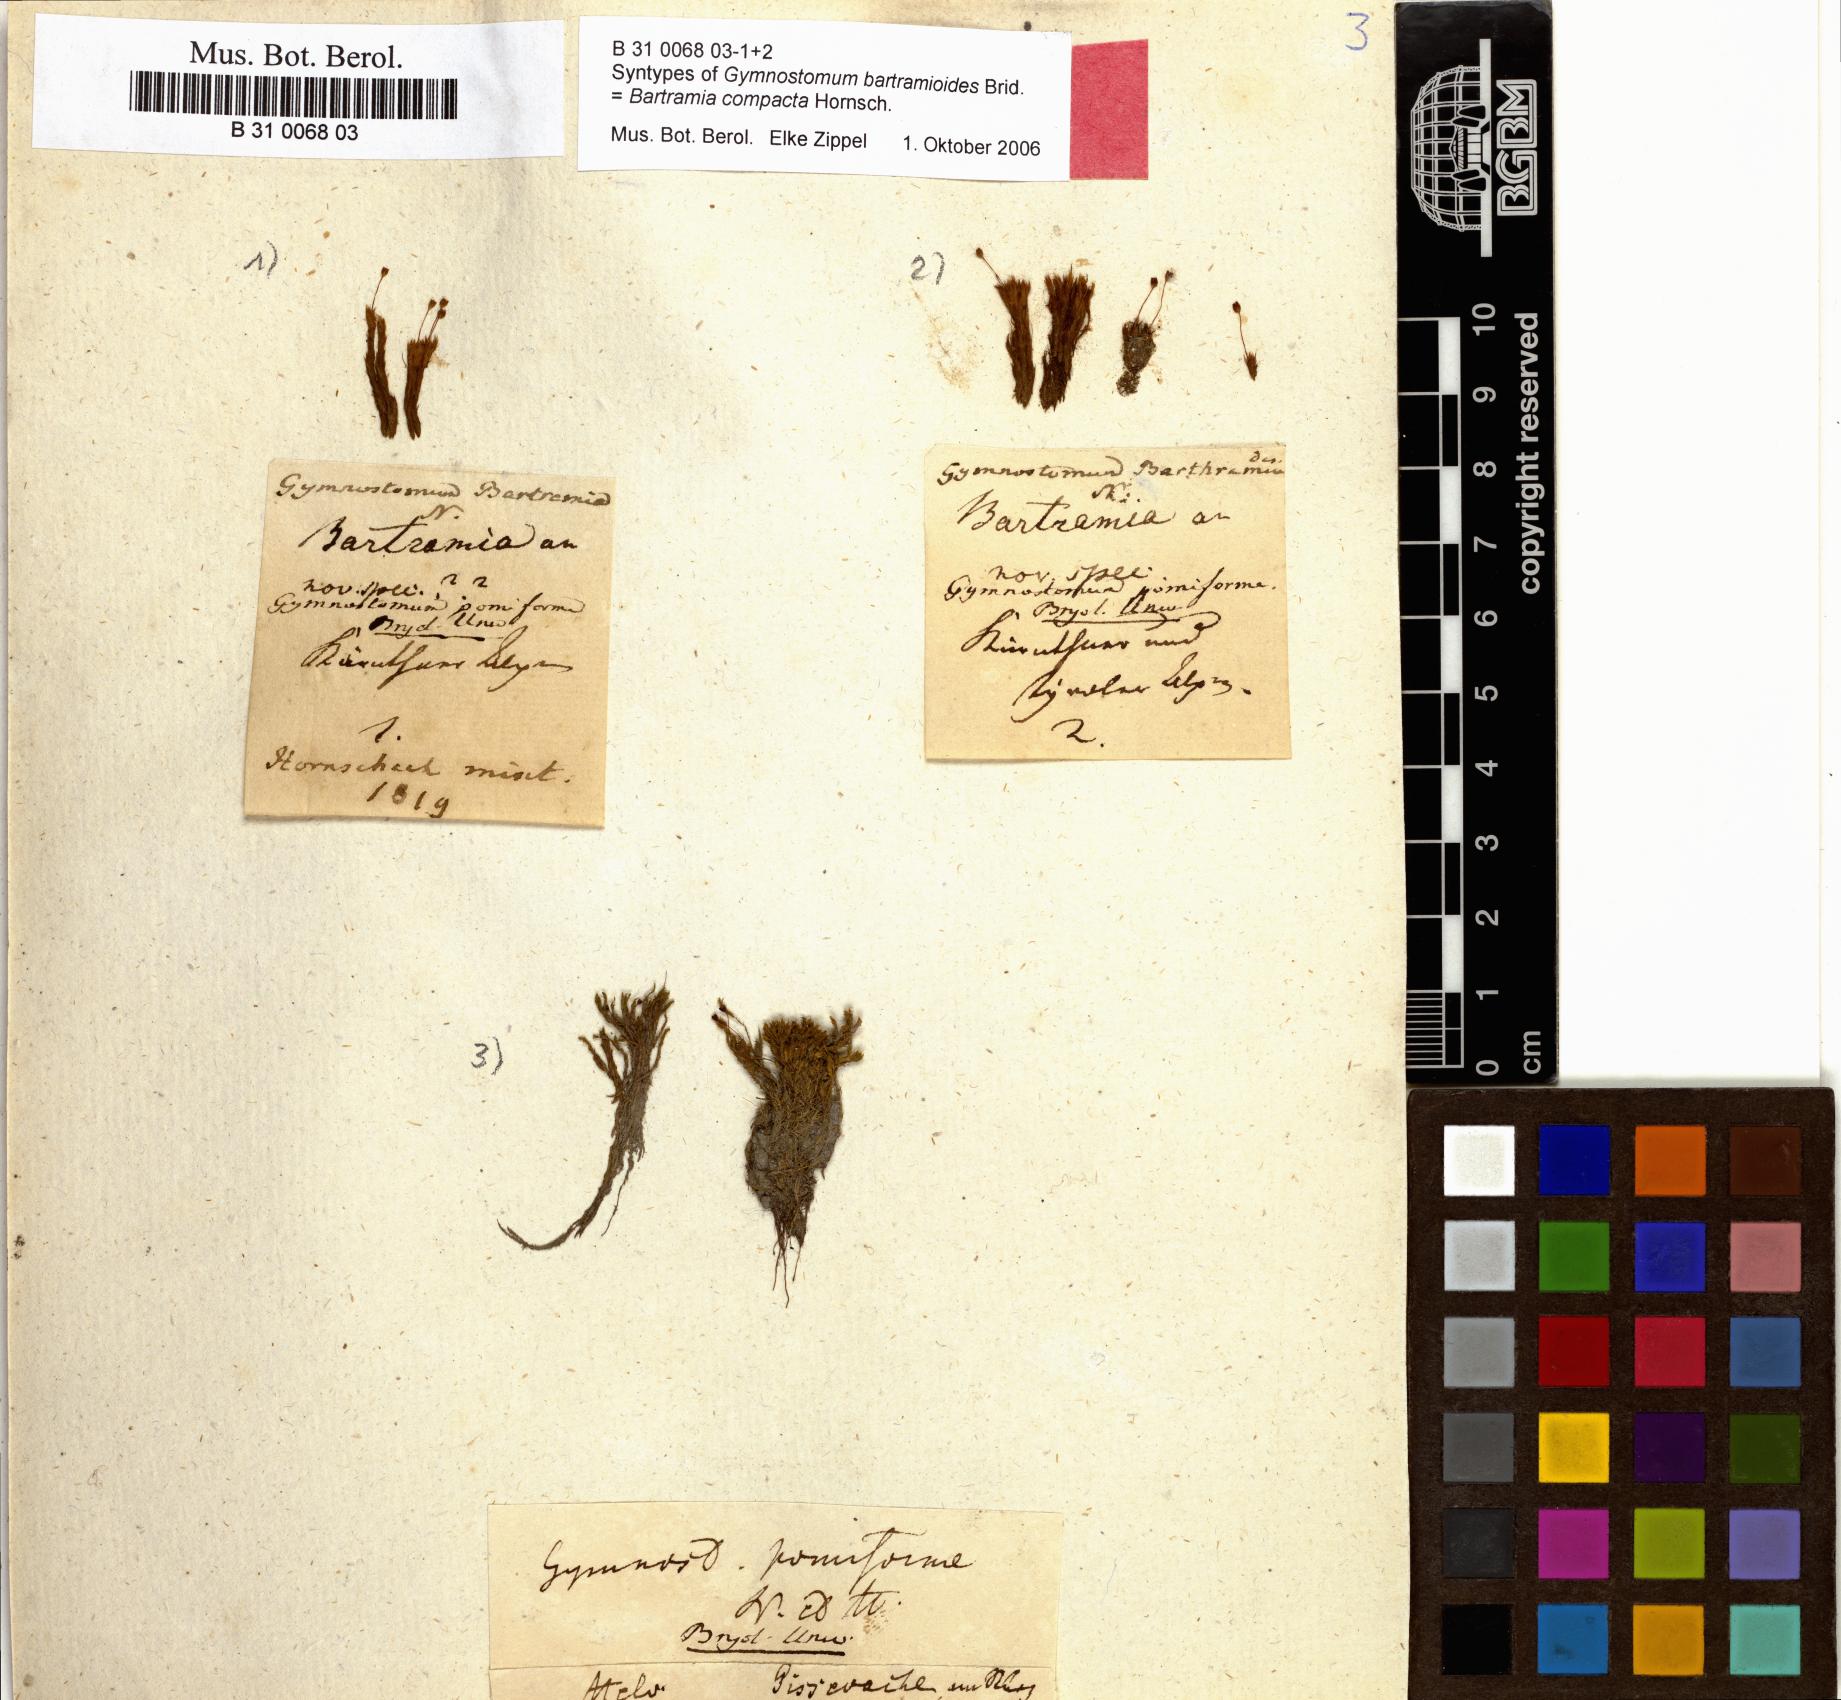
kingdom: Plantae
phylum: Bryophyta
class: Bryopsida
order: Pottiales
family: Pottiaceae
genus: Hymenostylium
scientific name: Hymenostylium recurvirostrum
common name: Hook-beak tufa-moss
